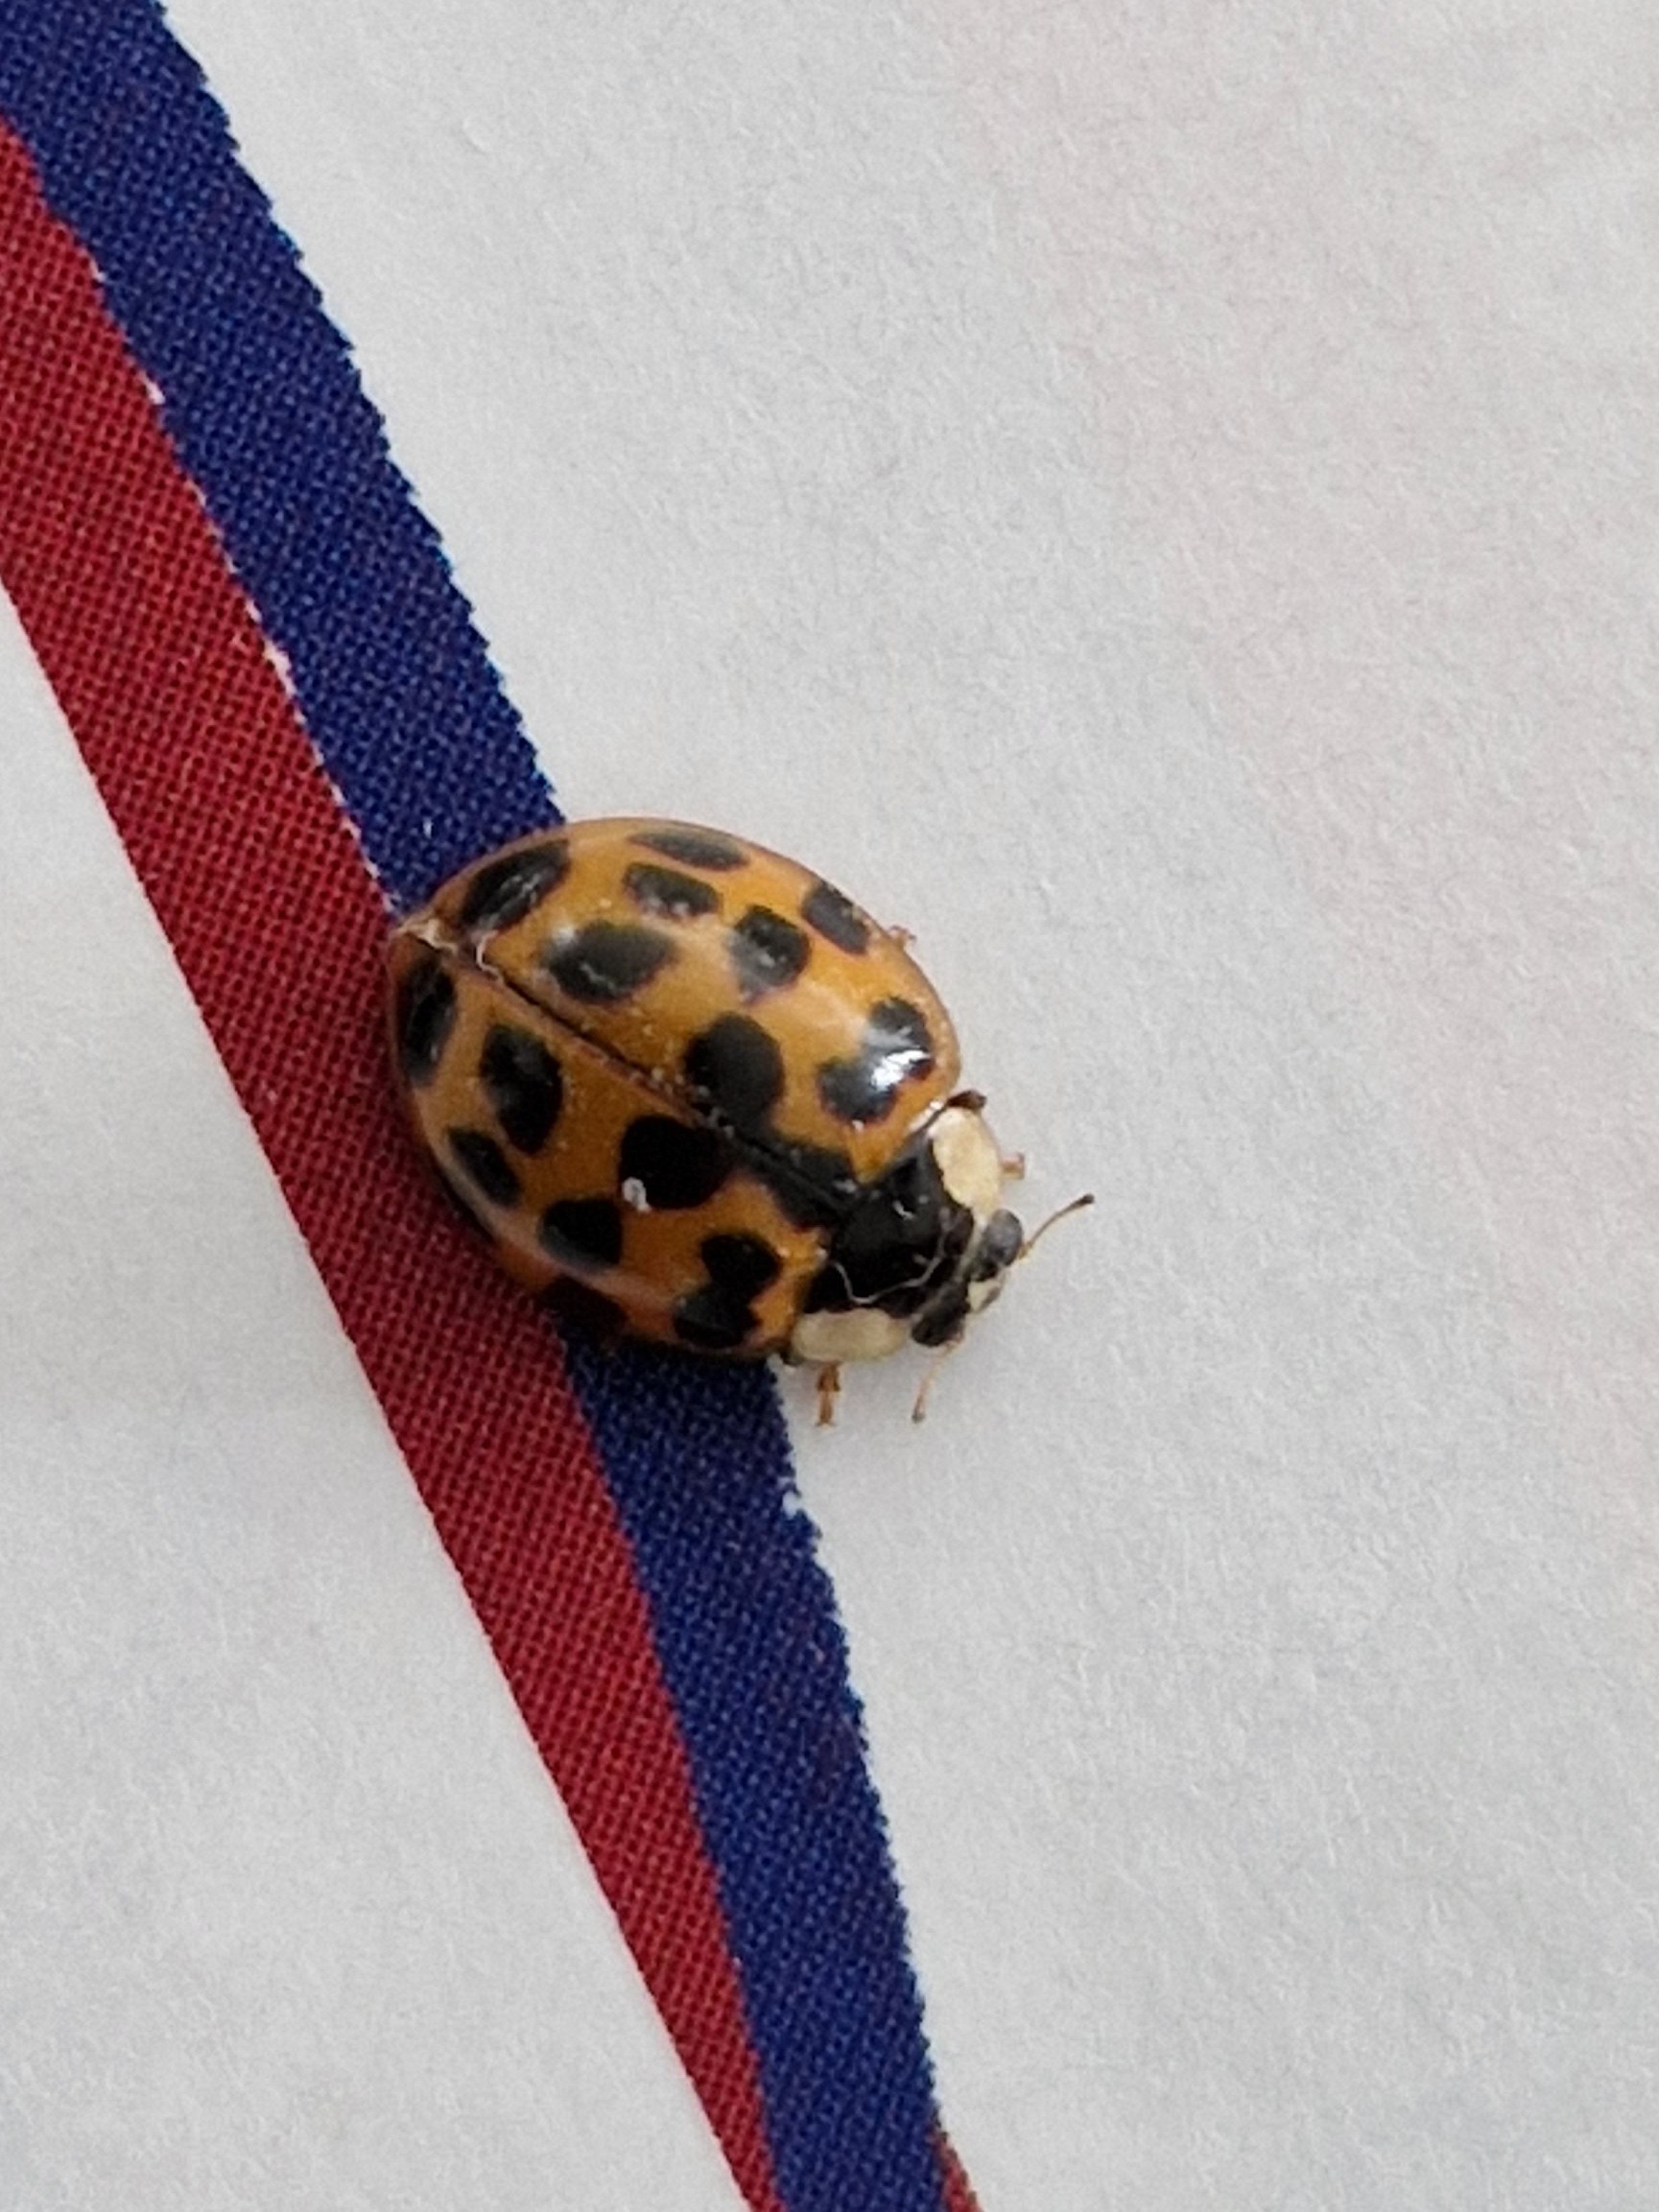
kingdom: Animalia
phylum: Arthropoda
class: Insecta
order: Coleoptera
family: Coccinellidae
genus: Harmonia
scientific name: Harmonia axyridis
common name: Harlekinmariehøne
